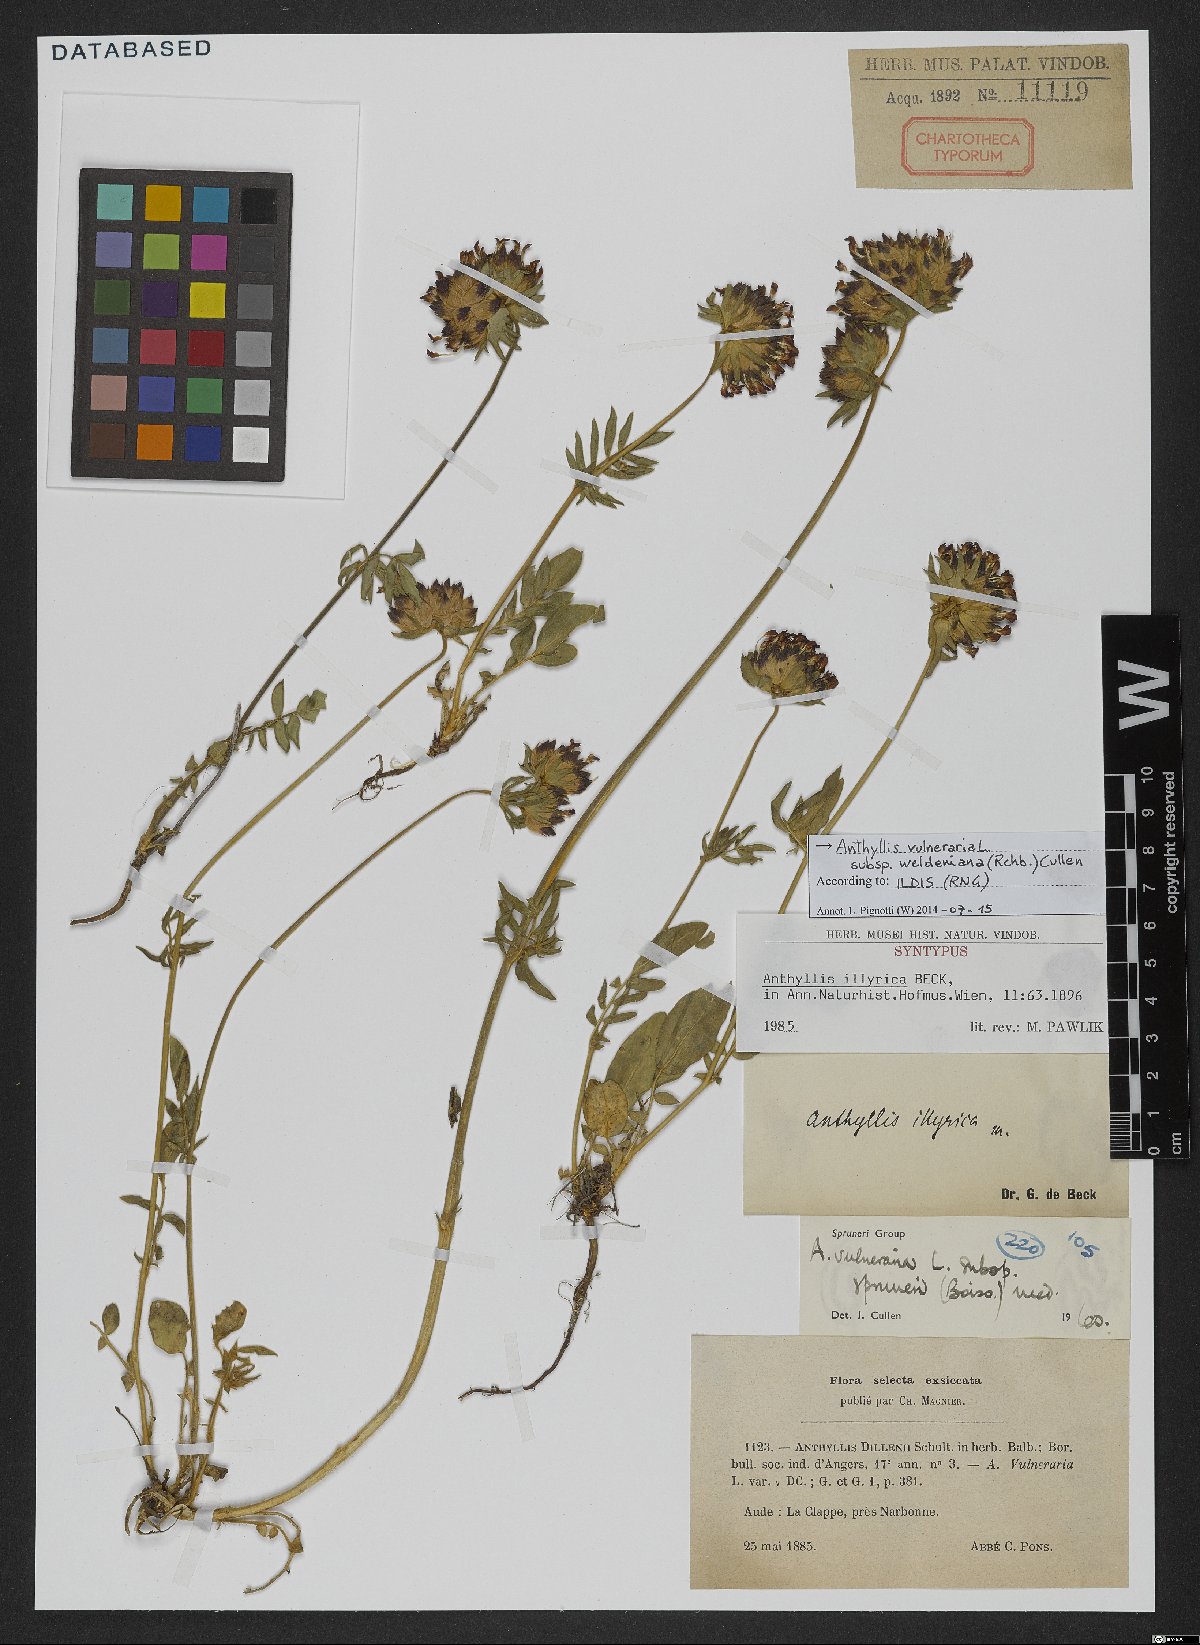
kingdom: Plantae
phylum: Tracheophyta
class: Magnoliopsida
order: Fabales
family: Fabaceae
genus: Anthyllis
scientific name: Anthyllis vulneraria
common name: Kidney vetch
